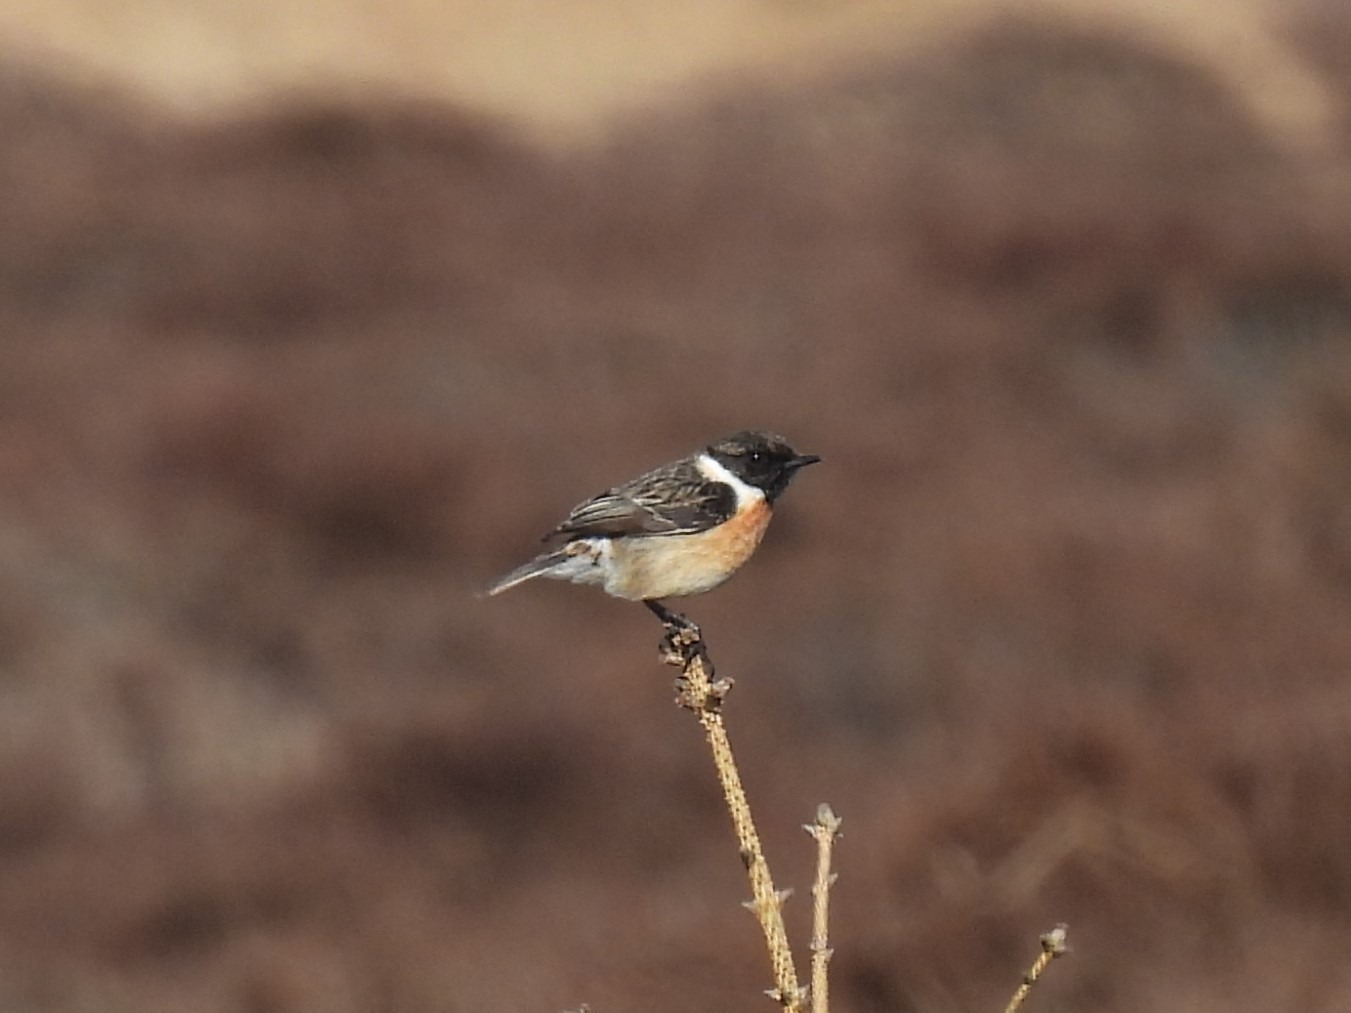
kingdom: Animalia
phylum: Chordata
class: Aves
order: Passeriformes
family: Muscicapidae
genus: Saxicola
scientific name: Saxicola rubicola
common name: Sortstrubet bynkefugl
